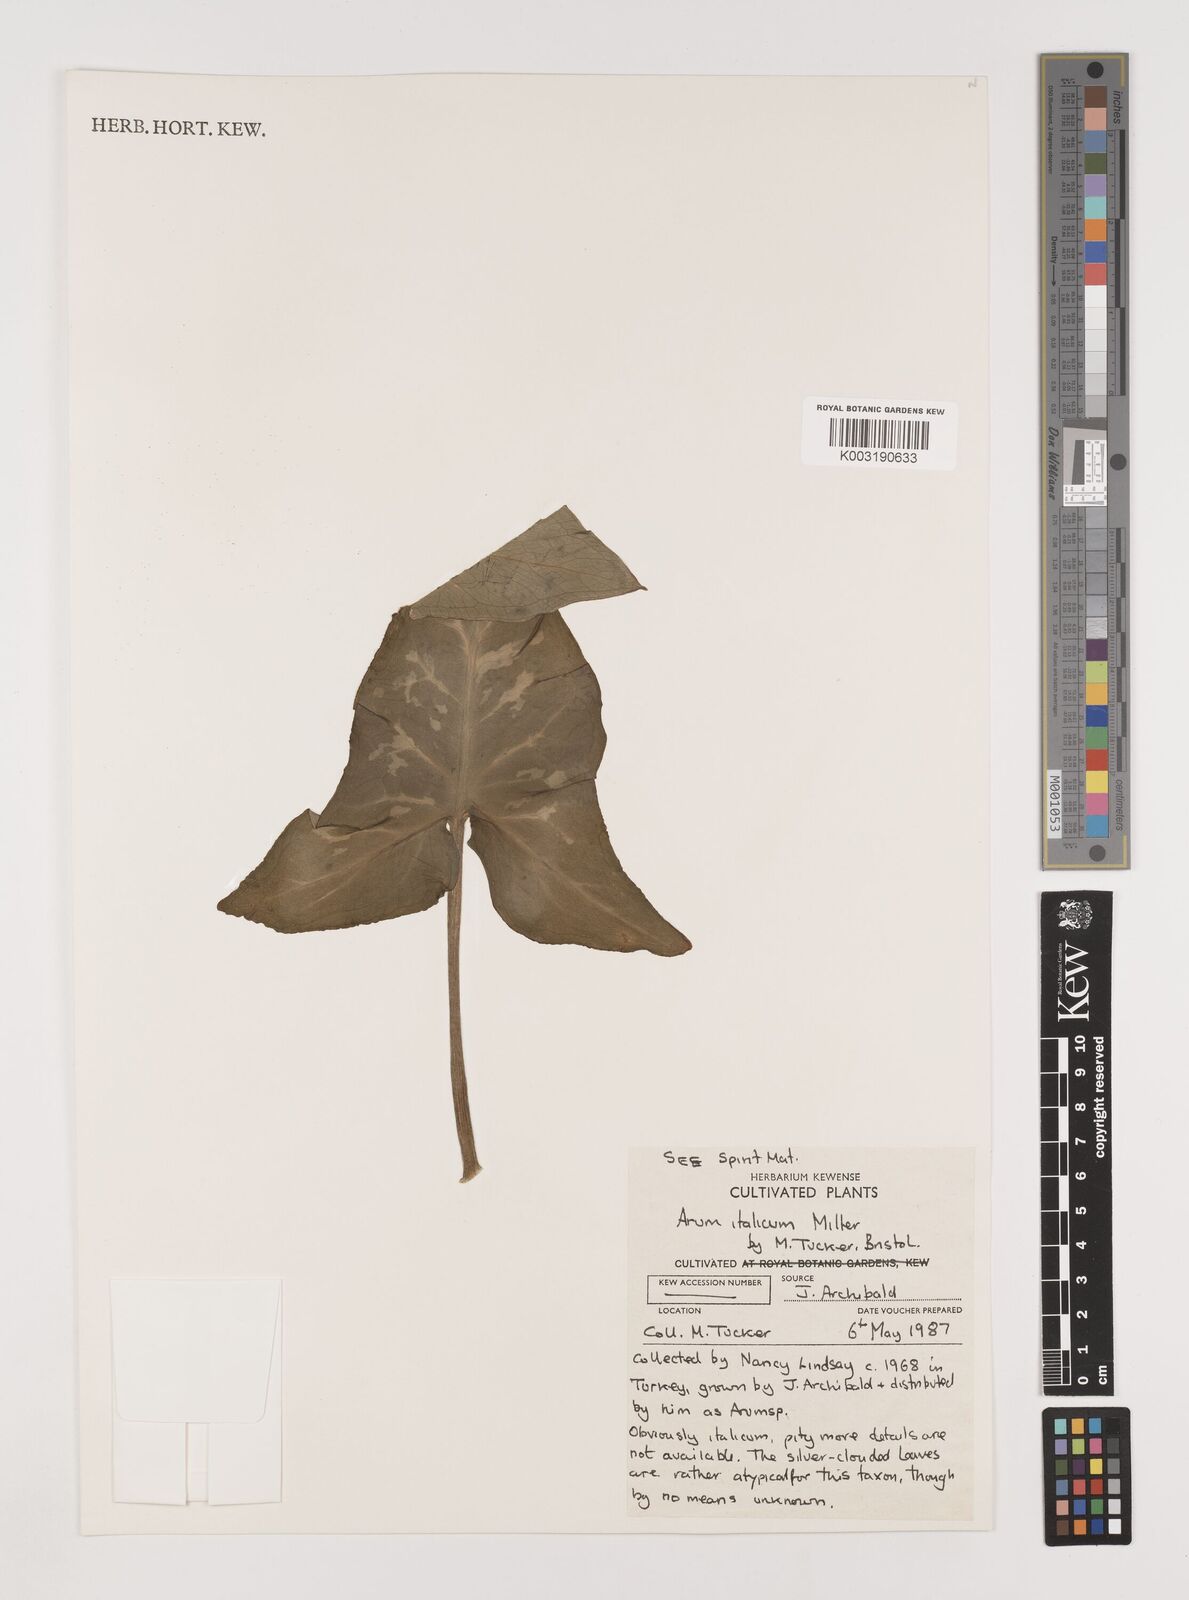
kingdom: Plantae
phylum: Tracheophyta
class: Liliopsida
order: Alismatales
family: Araceae
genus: Arum
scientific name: Arum italicum
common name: Italian lords-and-ladies
